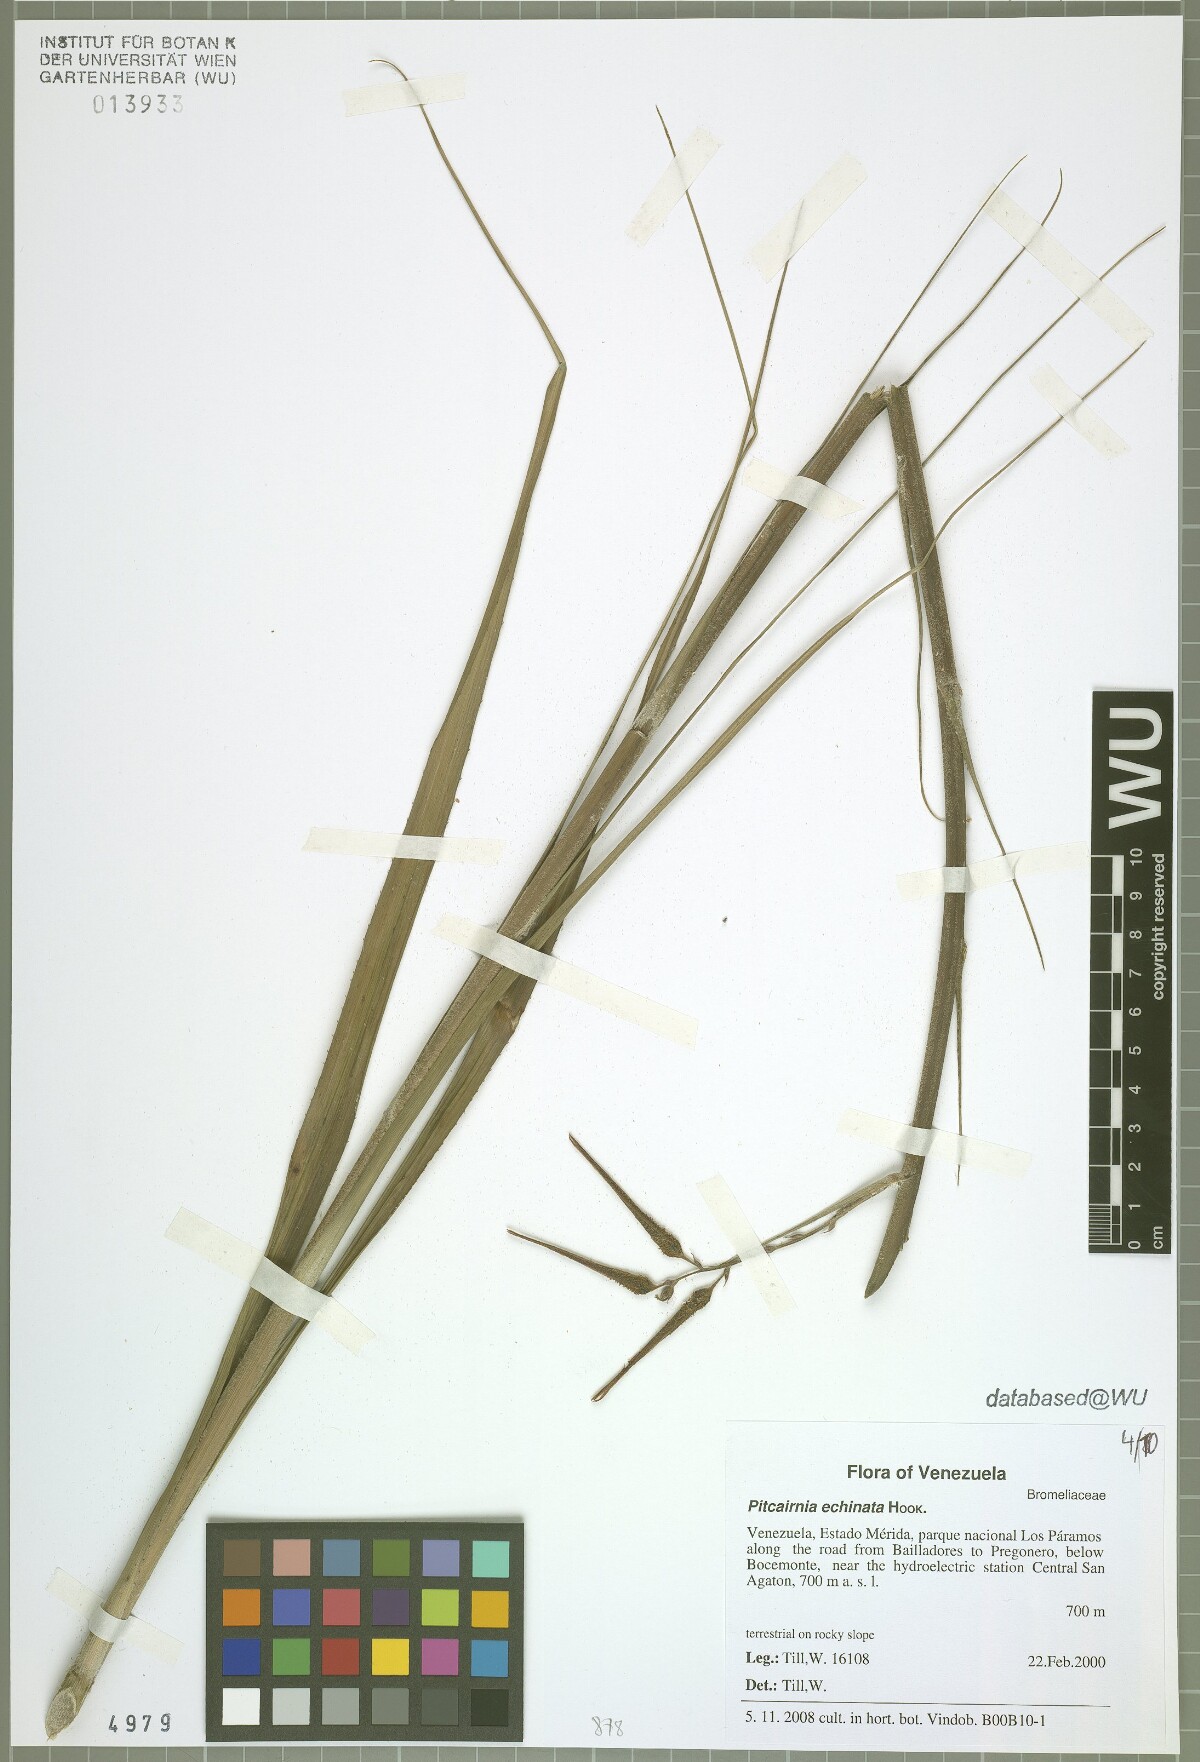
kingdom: Plantae
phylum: Tracheophyta
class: Liliopsida
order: Poales
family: Bromeliaceae
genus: Pitcairnia
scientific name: Pitcairnia echinata
